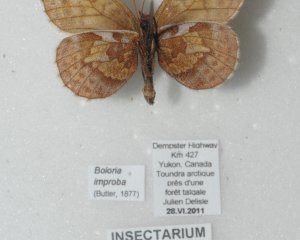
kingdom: Animalia
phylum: Arthropoda
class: Insecta
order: Lepidoptera
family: Nymphalidae
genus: Clossiana
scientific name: Clossiana improba
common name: Dingy Fritillary
